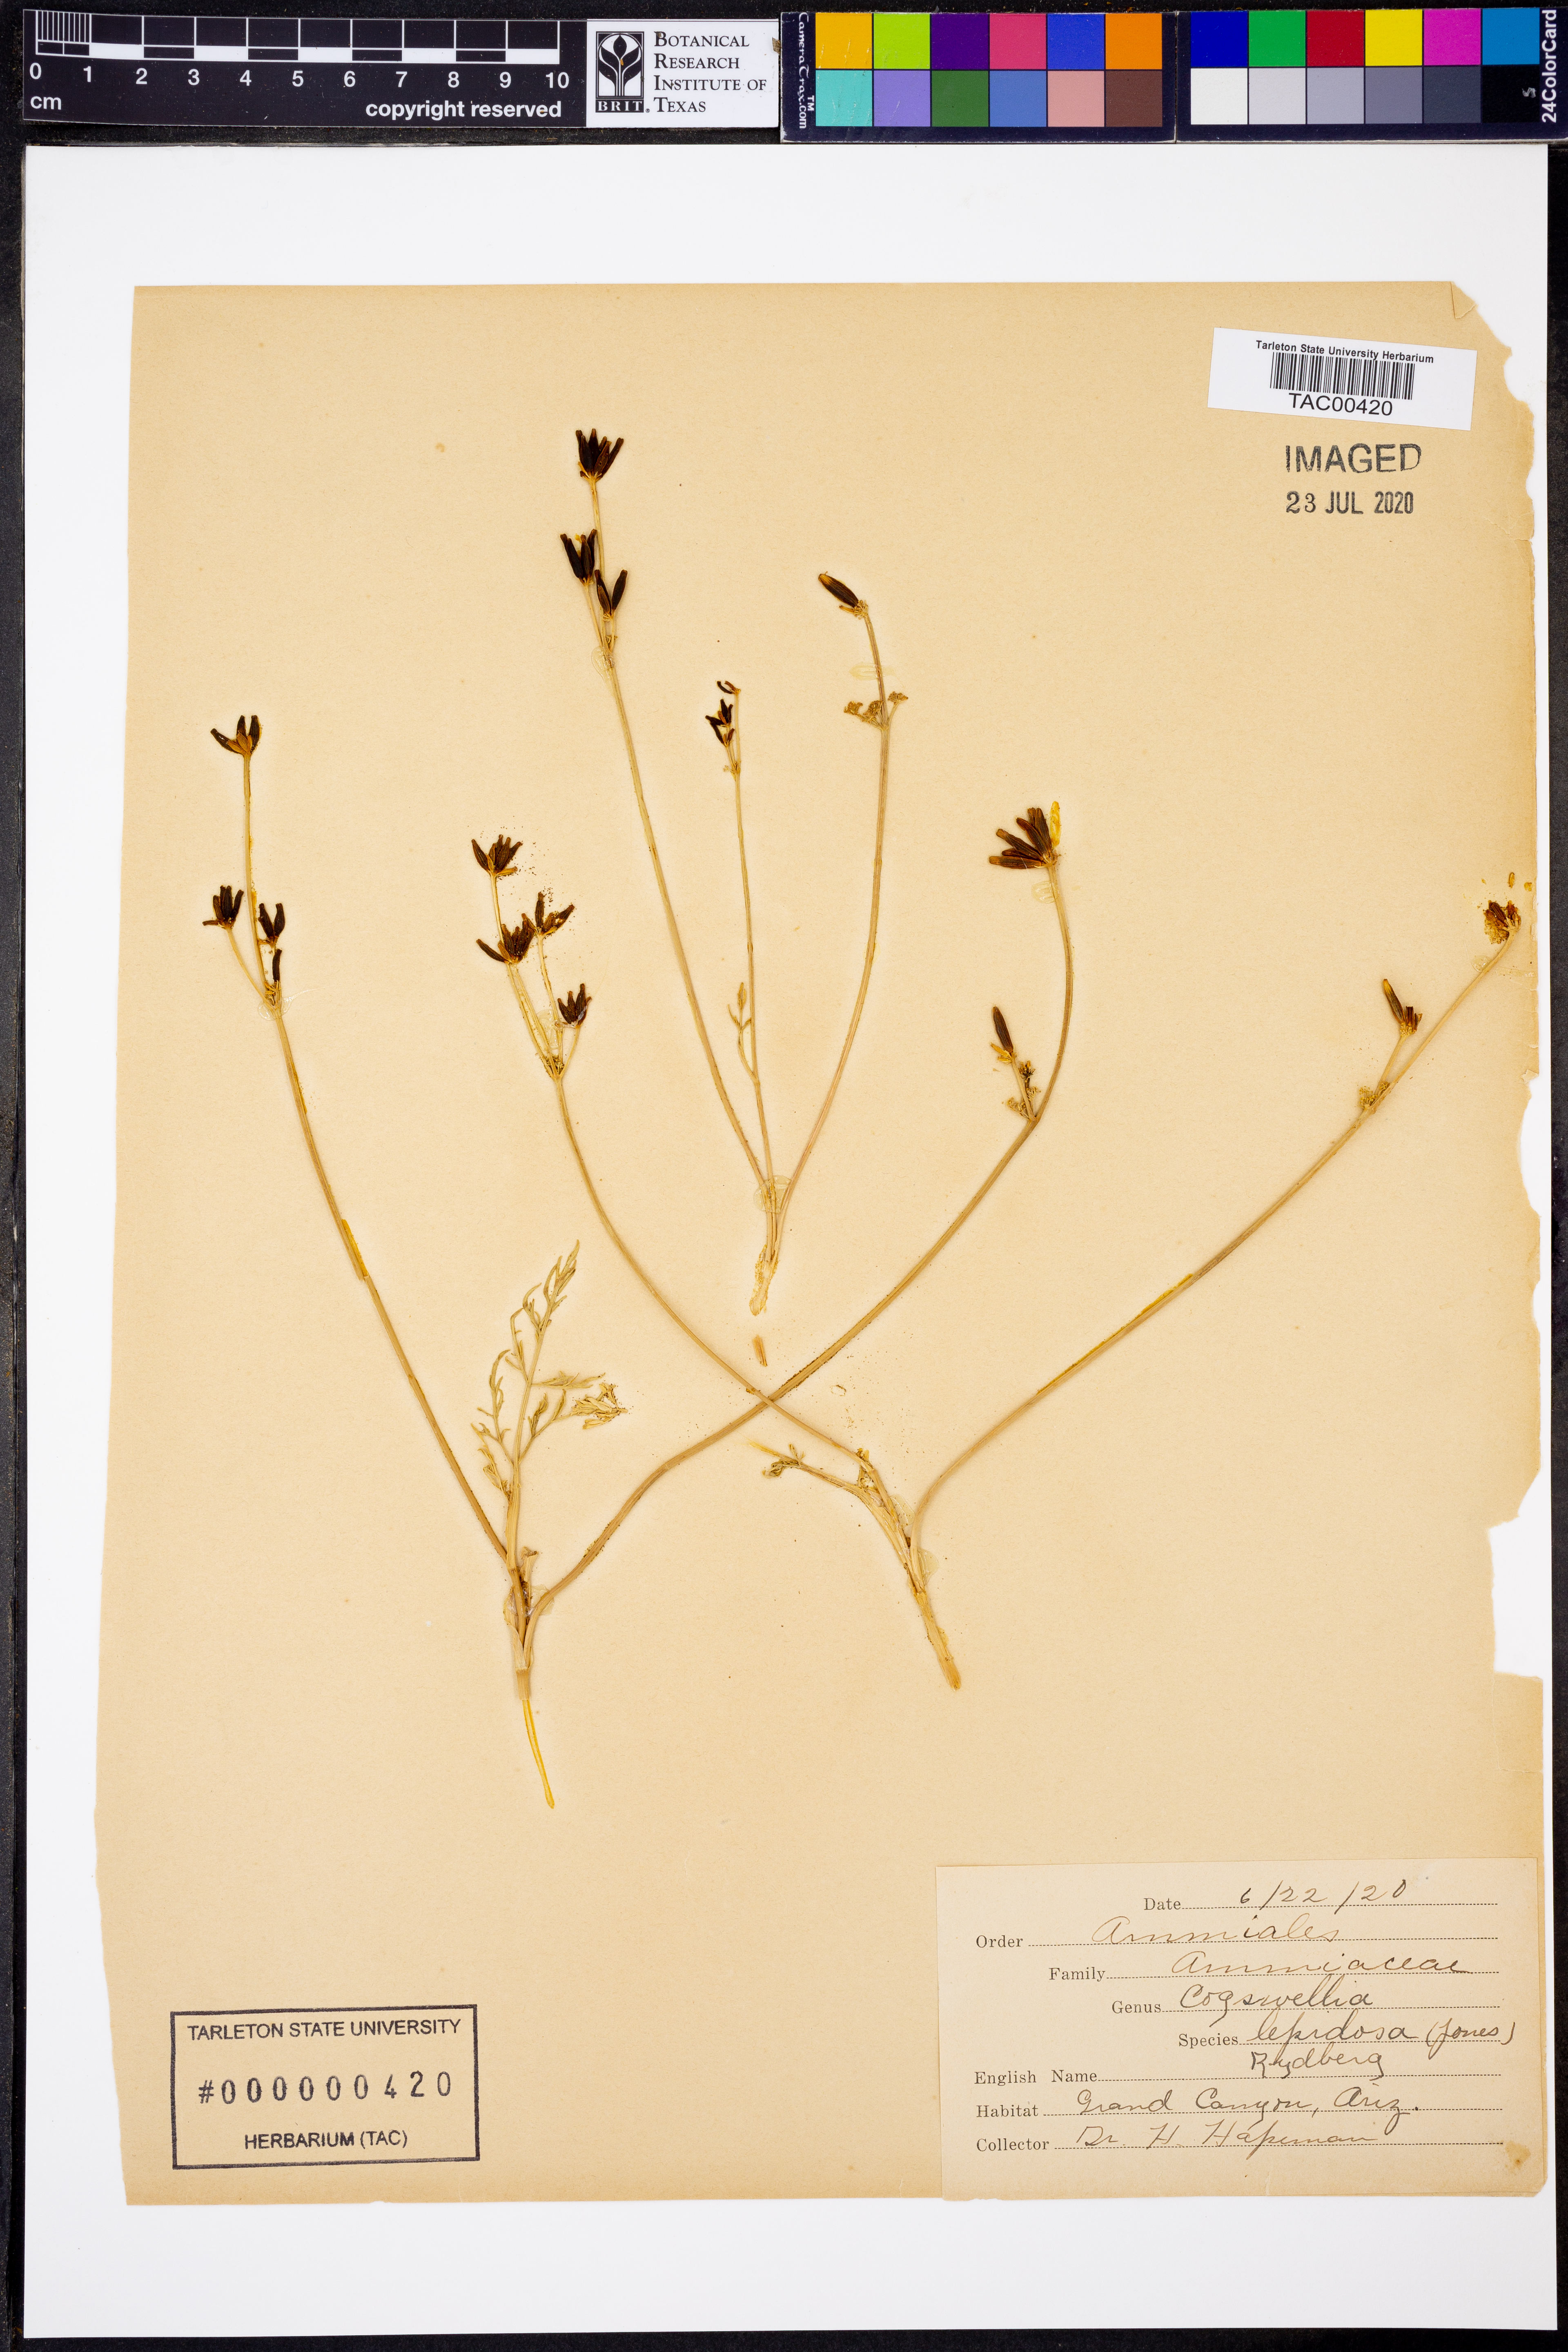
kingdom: Plantae
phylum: Tracheophyta
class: Magnoliopsida
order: Apiales
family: Apiaceae
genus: Cymopterus
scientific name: Cymopterus lapidosus
